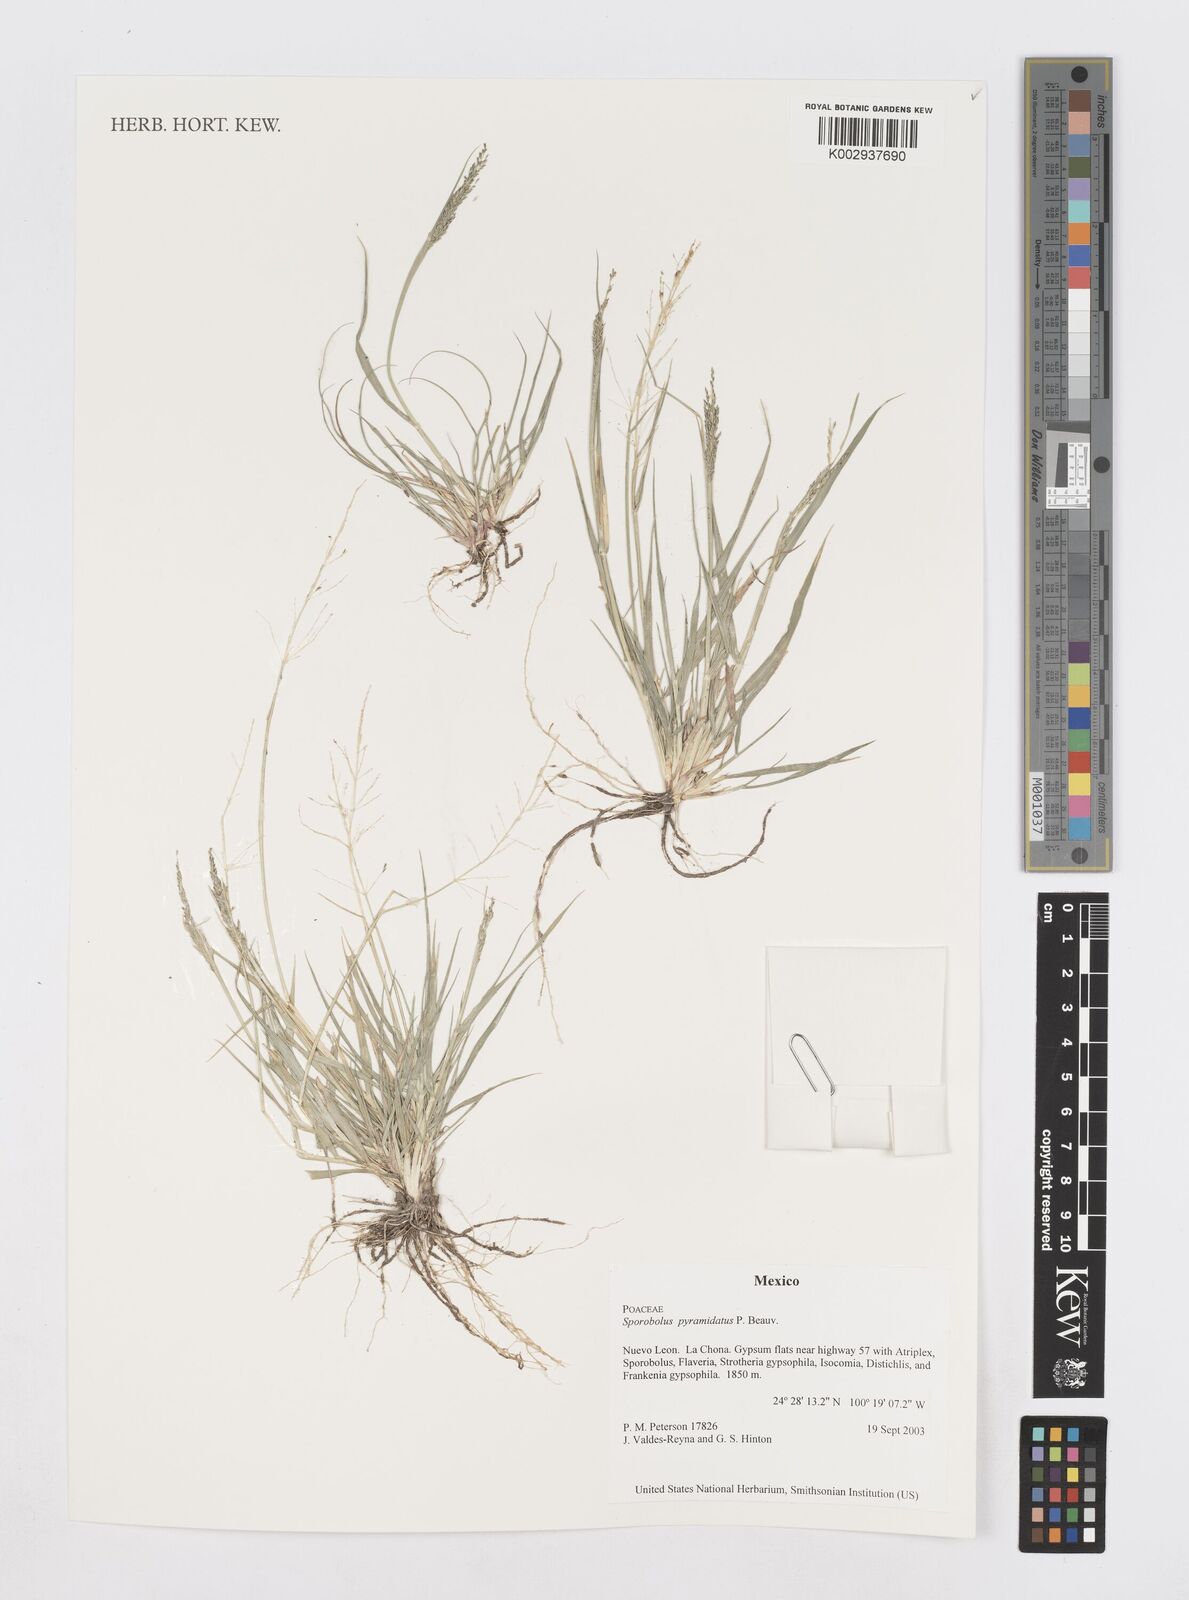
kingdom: Plantae
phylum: Tracheophyta
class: Liliopsida
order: Poales
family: Poaceae
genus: Sporobolus
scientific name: Sporobolus pyramidatus
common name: Whorled dropseed
